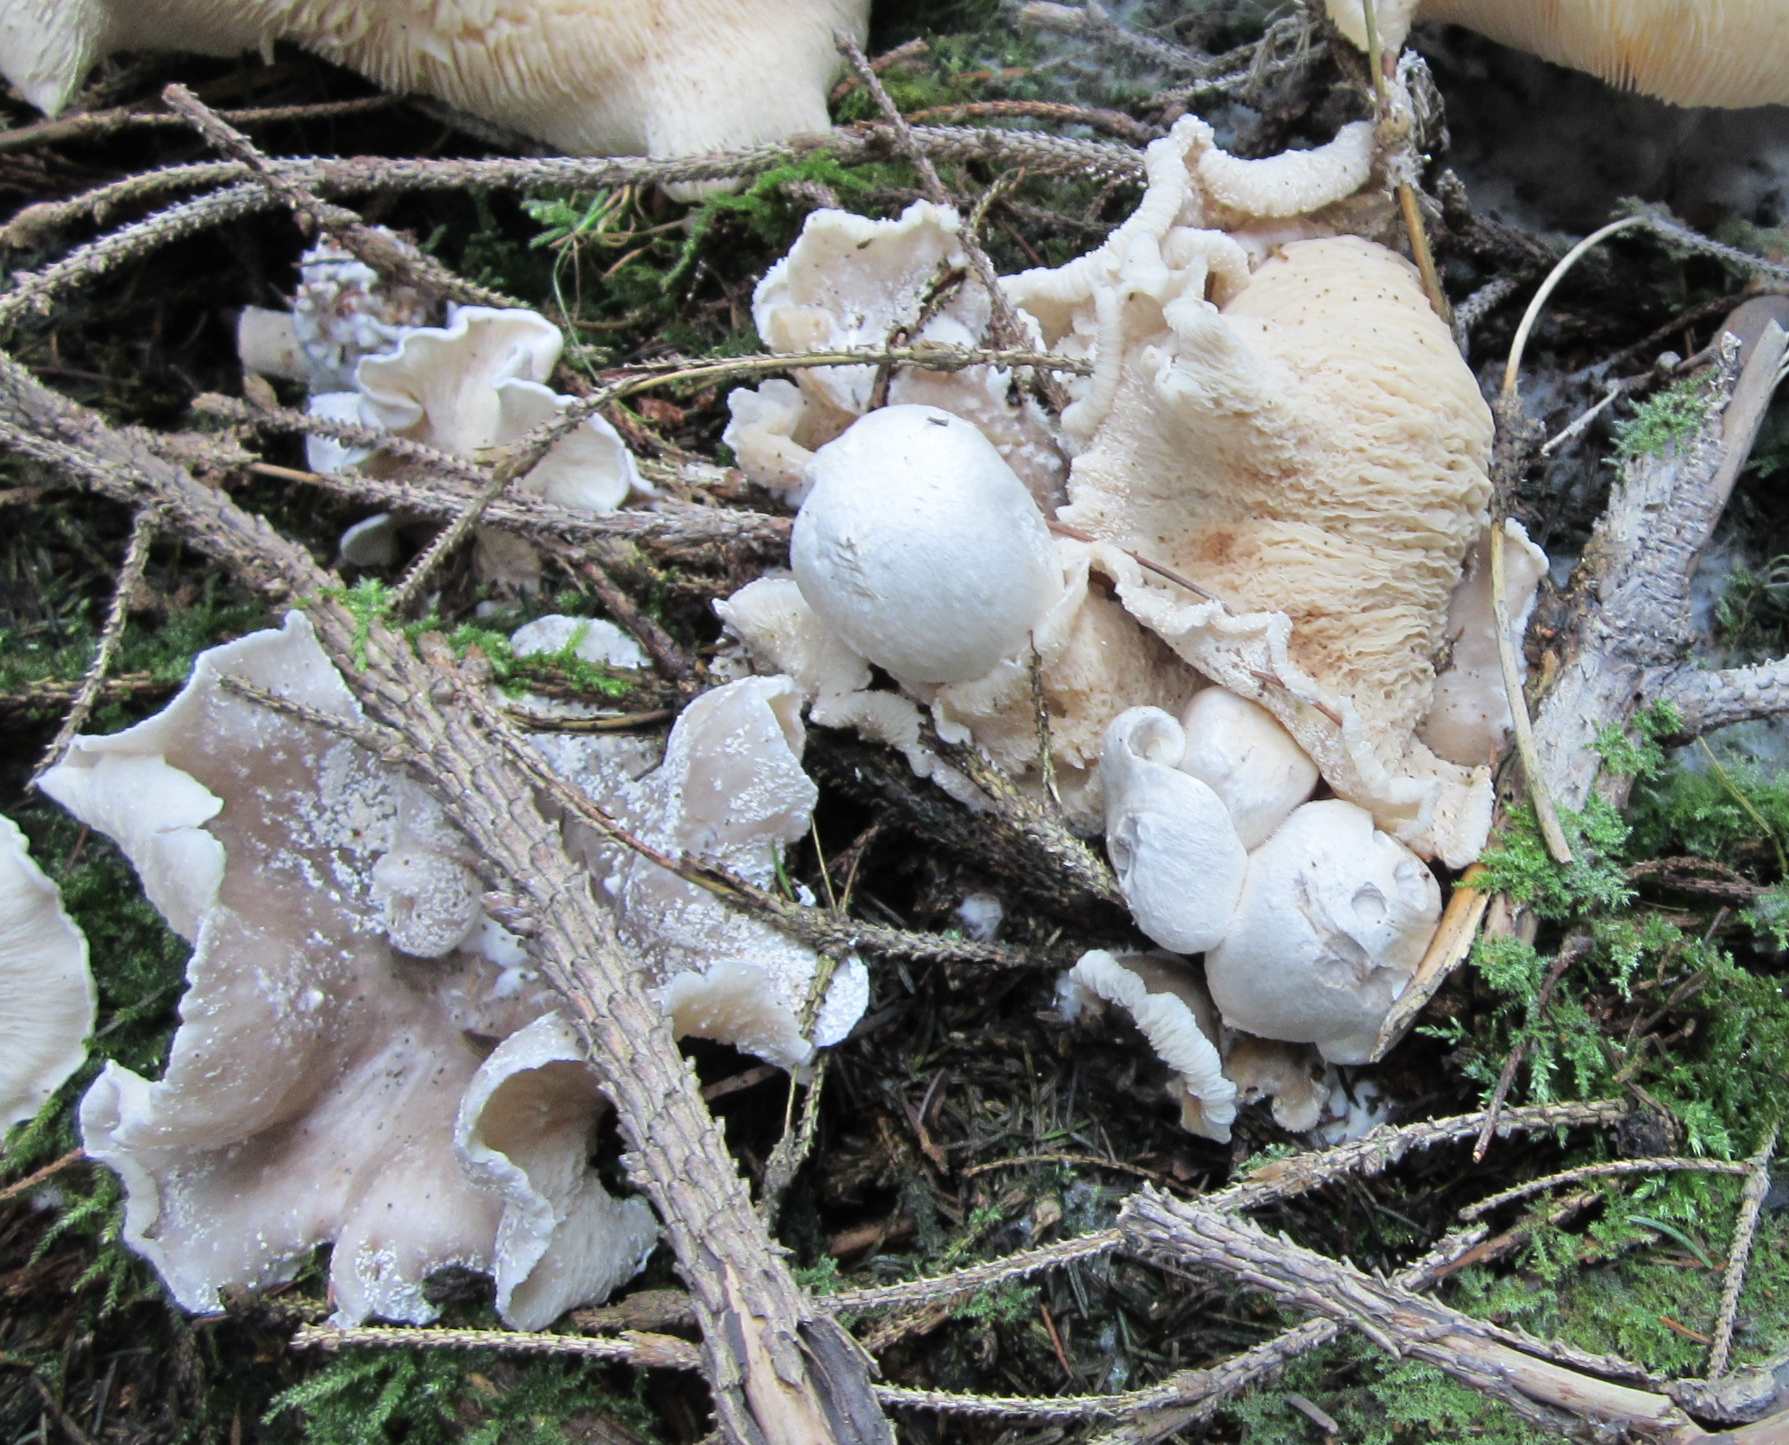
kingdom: Fungi
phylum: Basidiomycota
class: Agaricomycetes
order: Agaricales
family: Pluteaceae
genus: Volvariella
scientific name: Volvariella surrecta
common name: snyltende posesvamp
